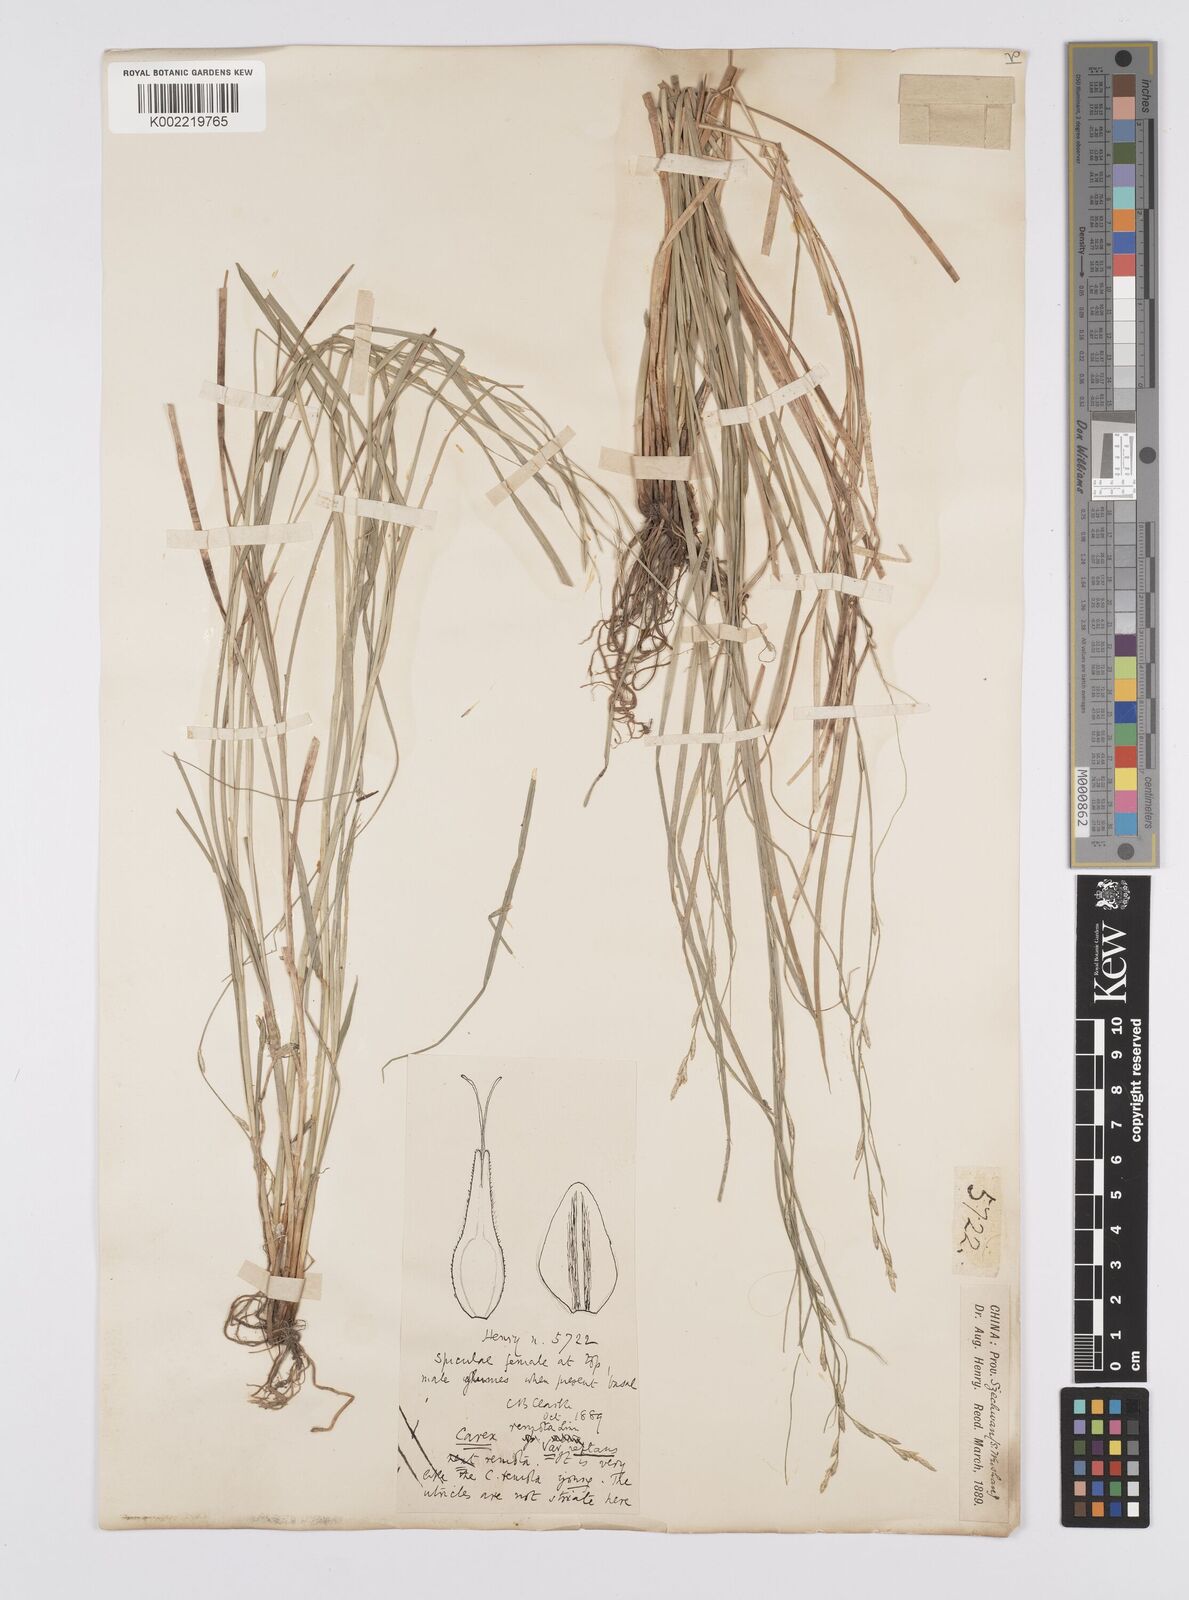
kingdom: Plantae
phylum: Tracheophyta
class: Liliopsida
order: Poales
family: Cyperaceae
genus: Carex
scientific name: Carex remota
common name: Remote sedge
